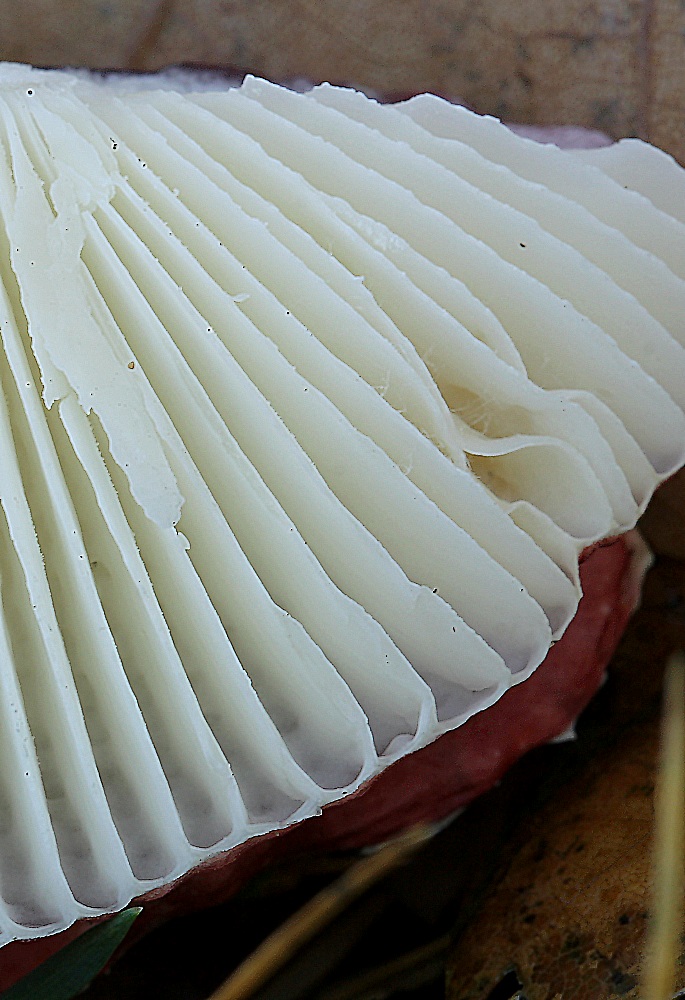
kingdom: Fungi
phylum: Basidiomycota
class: Agaricomycetes
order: Russulales
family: Russulaceae
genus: Russula
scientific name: Russula fragilis
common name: savbladet skørhat
